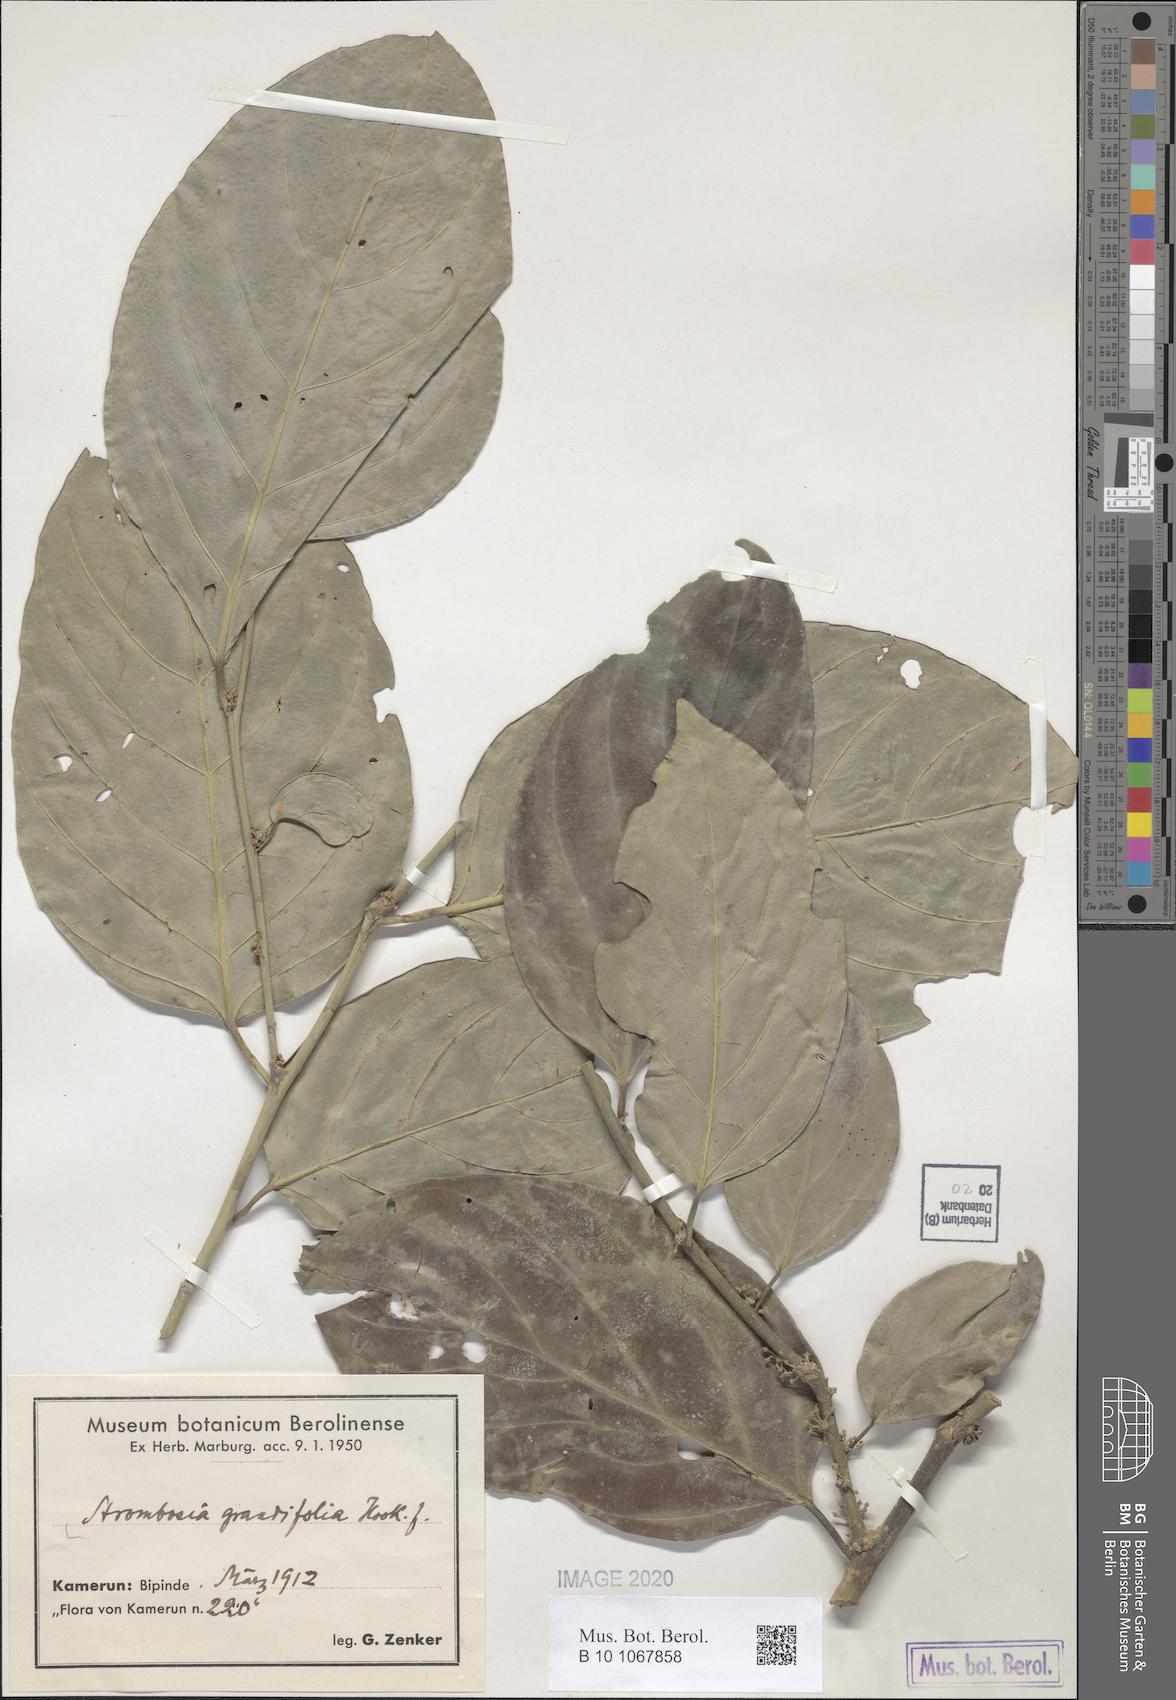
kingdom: Plantae
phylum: Tracheophyta
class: Magnoliopsida
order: Santalales
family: Strombosiaceae
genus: Strombosia
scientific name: Strombosia grandifolia
